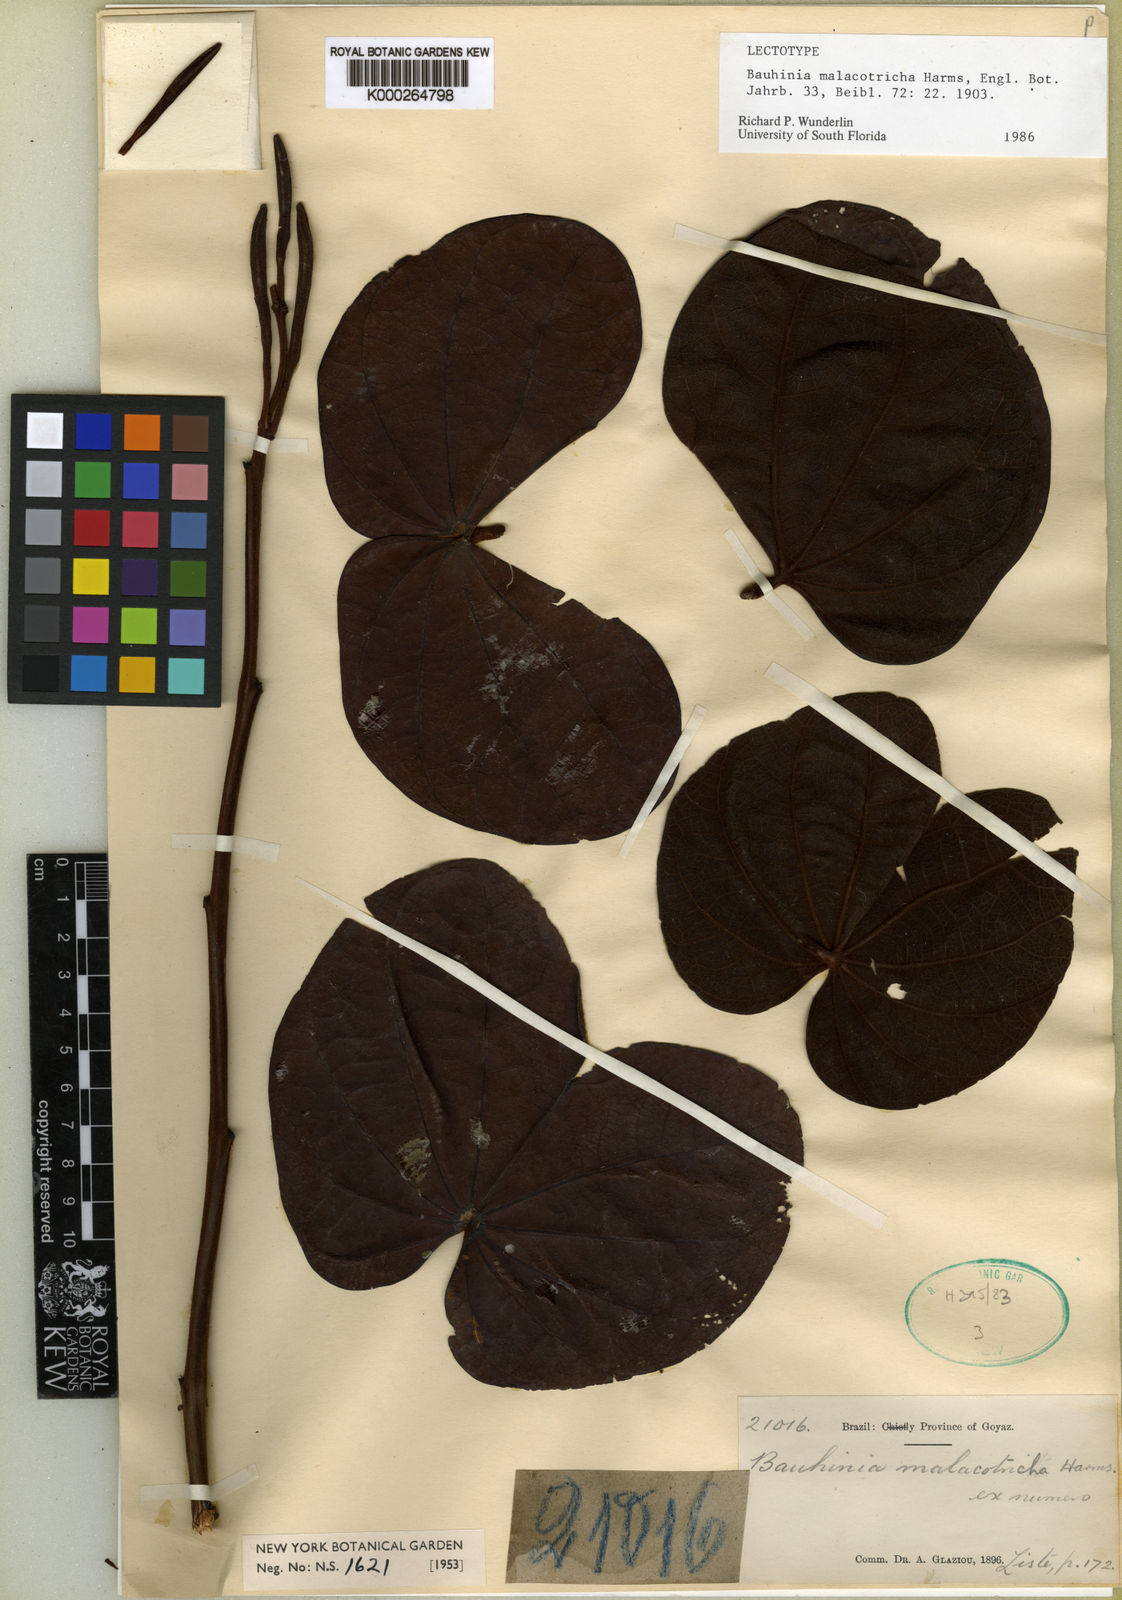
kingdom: Plantae
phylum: Tracheophyta
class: Magnoliopsida
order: Fabales
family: Fabaceae
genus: Bauhinia
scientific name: Bauhinia malacotricha
